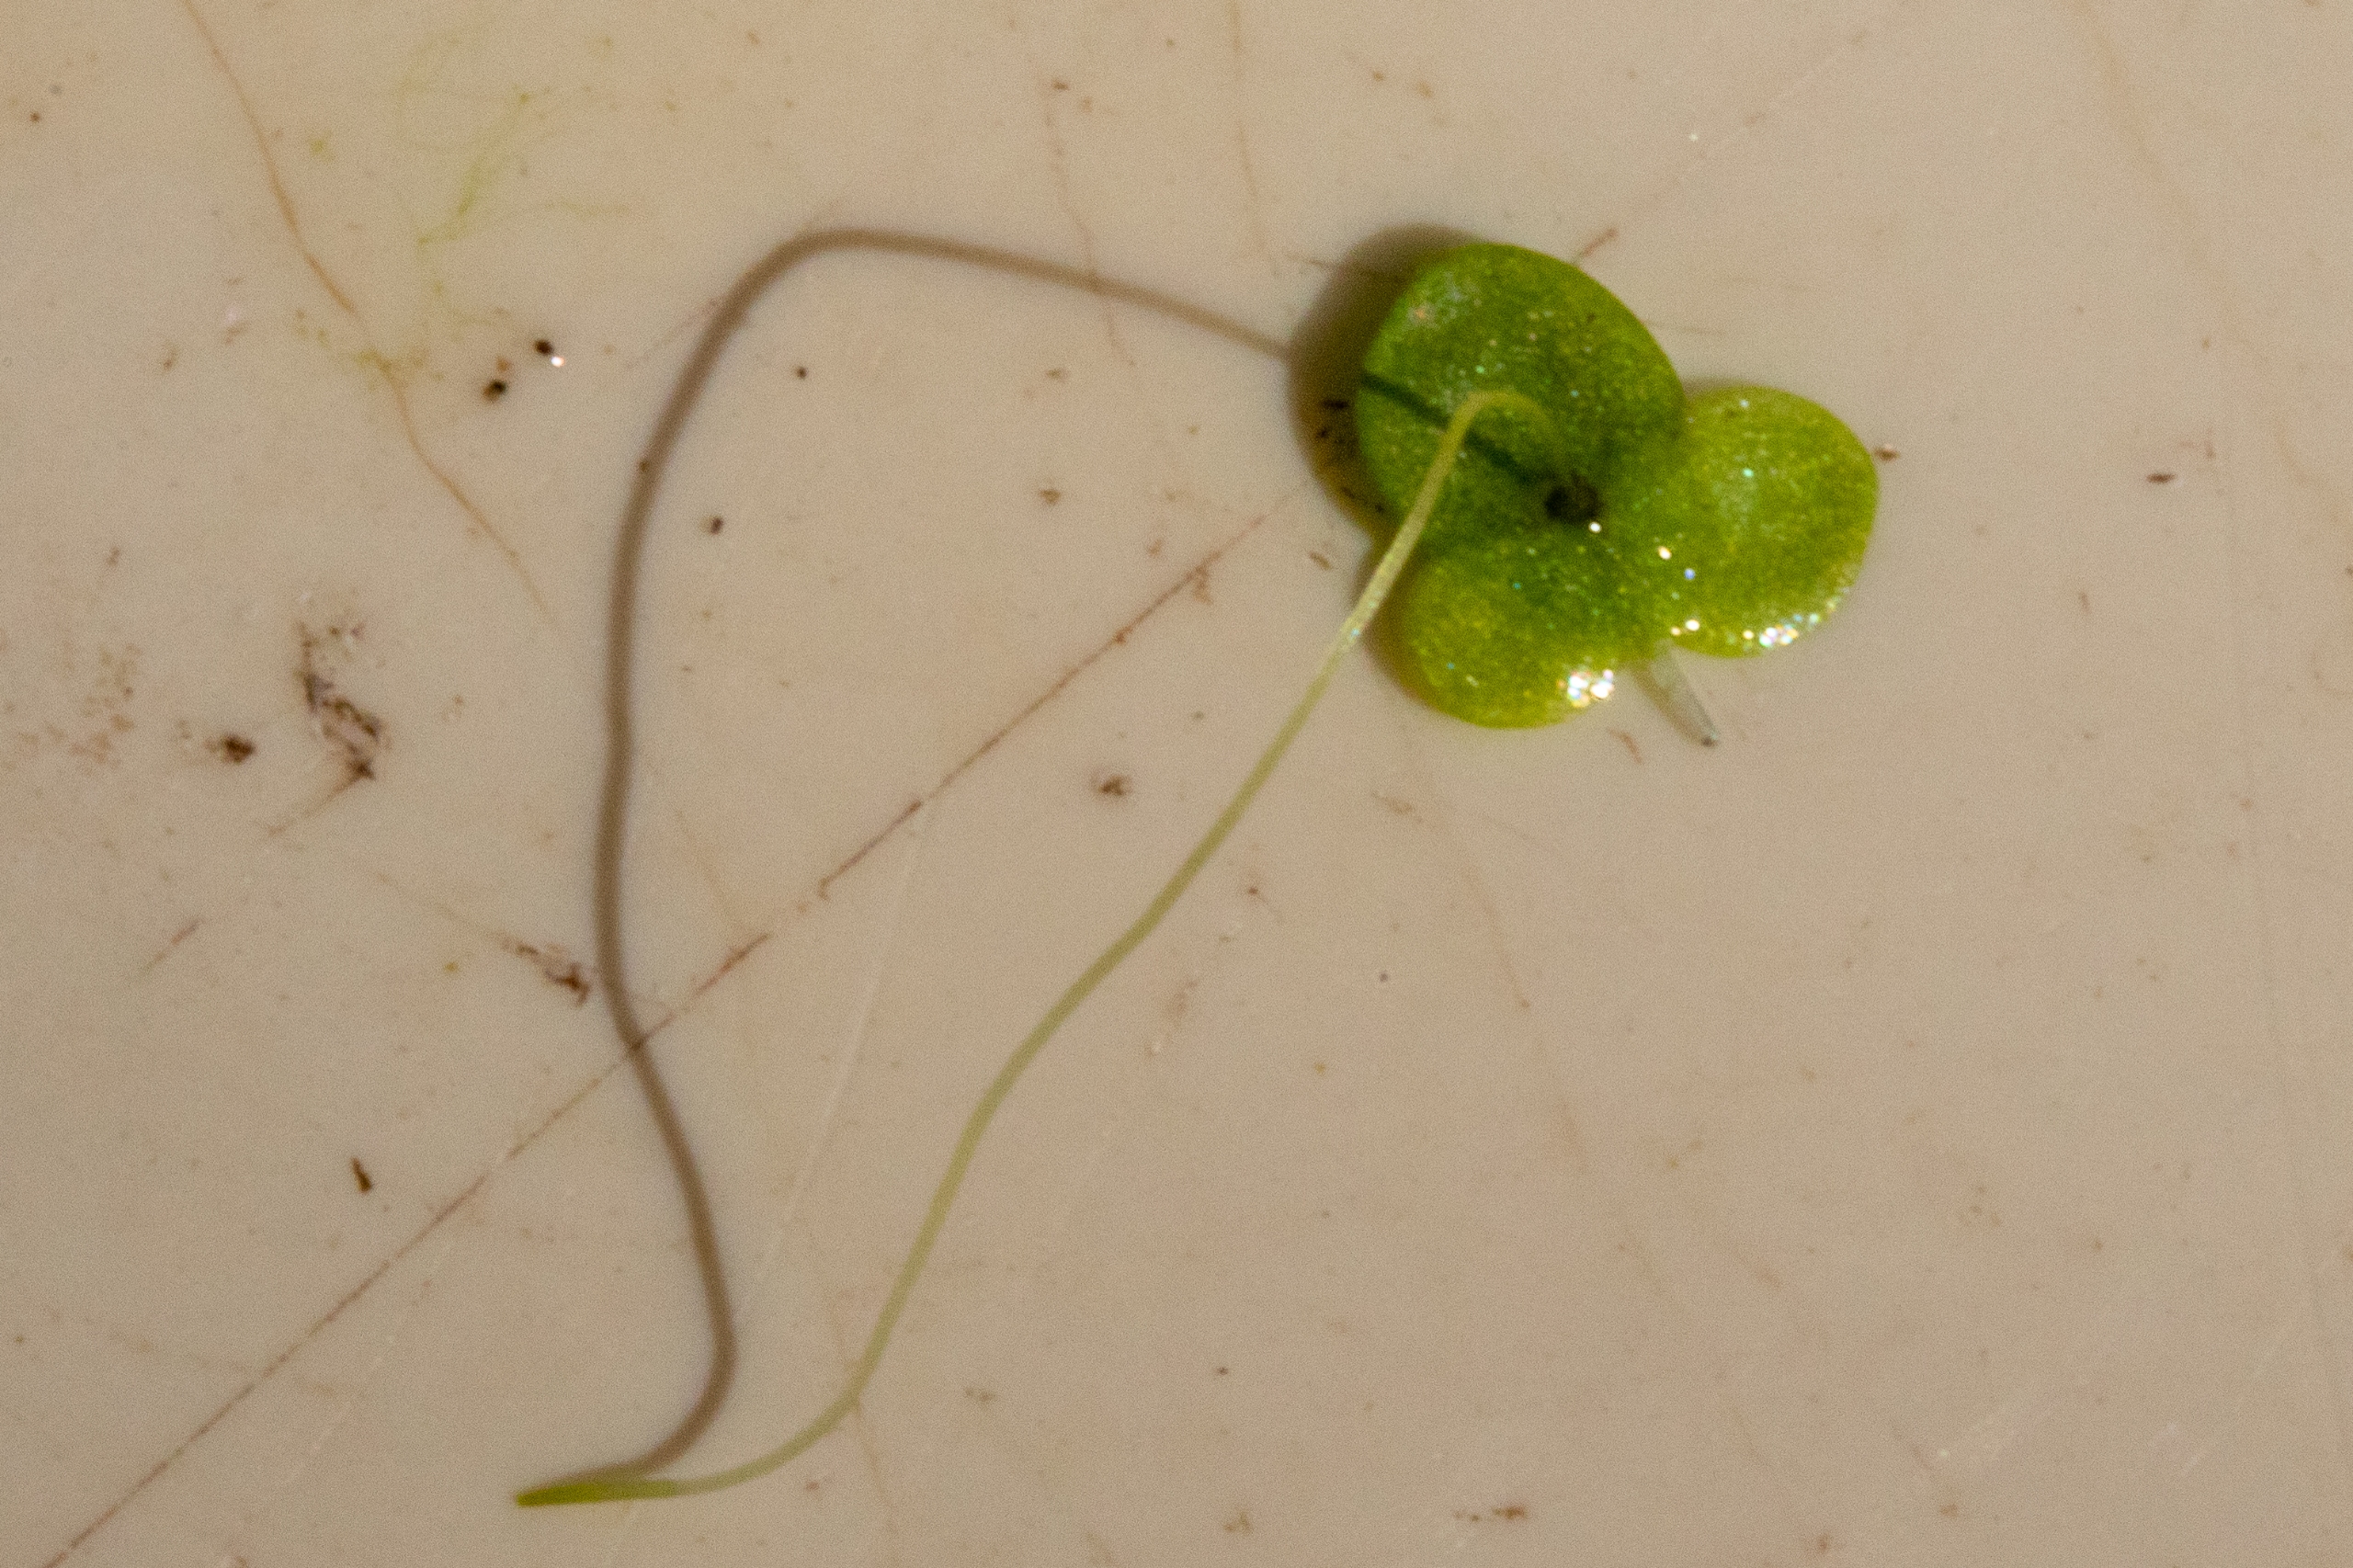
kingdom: Plantae
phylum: Tracheophyta
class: Liliopsida
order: Alismatales
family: Araceae
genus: Lemna
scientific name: Lemna minor
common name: Liden andemad
